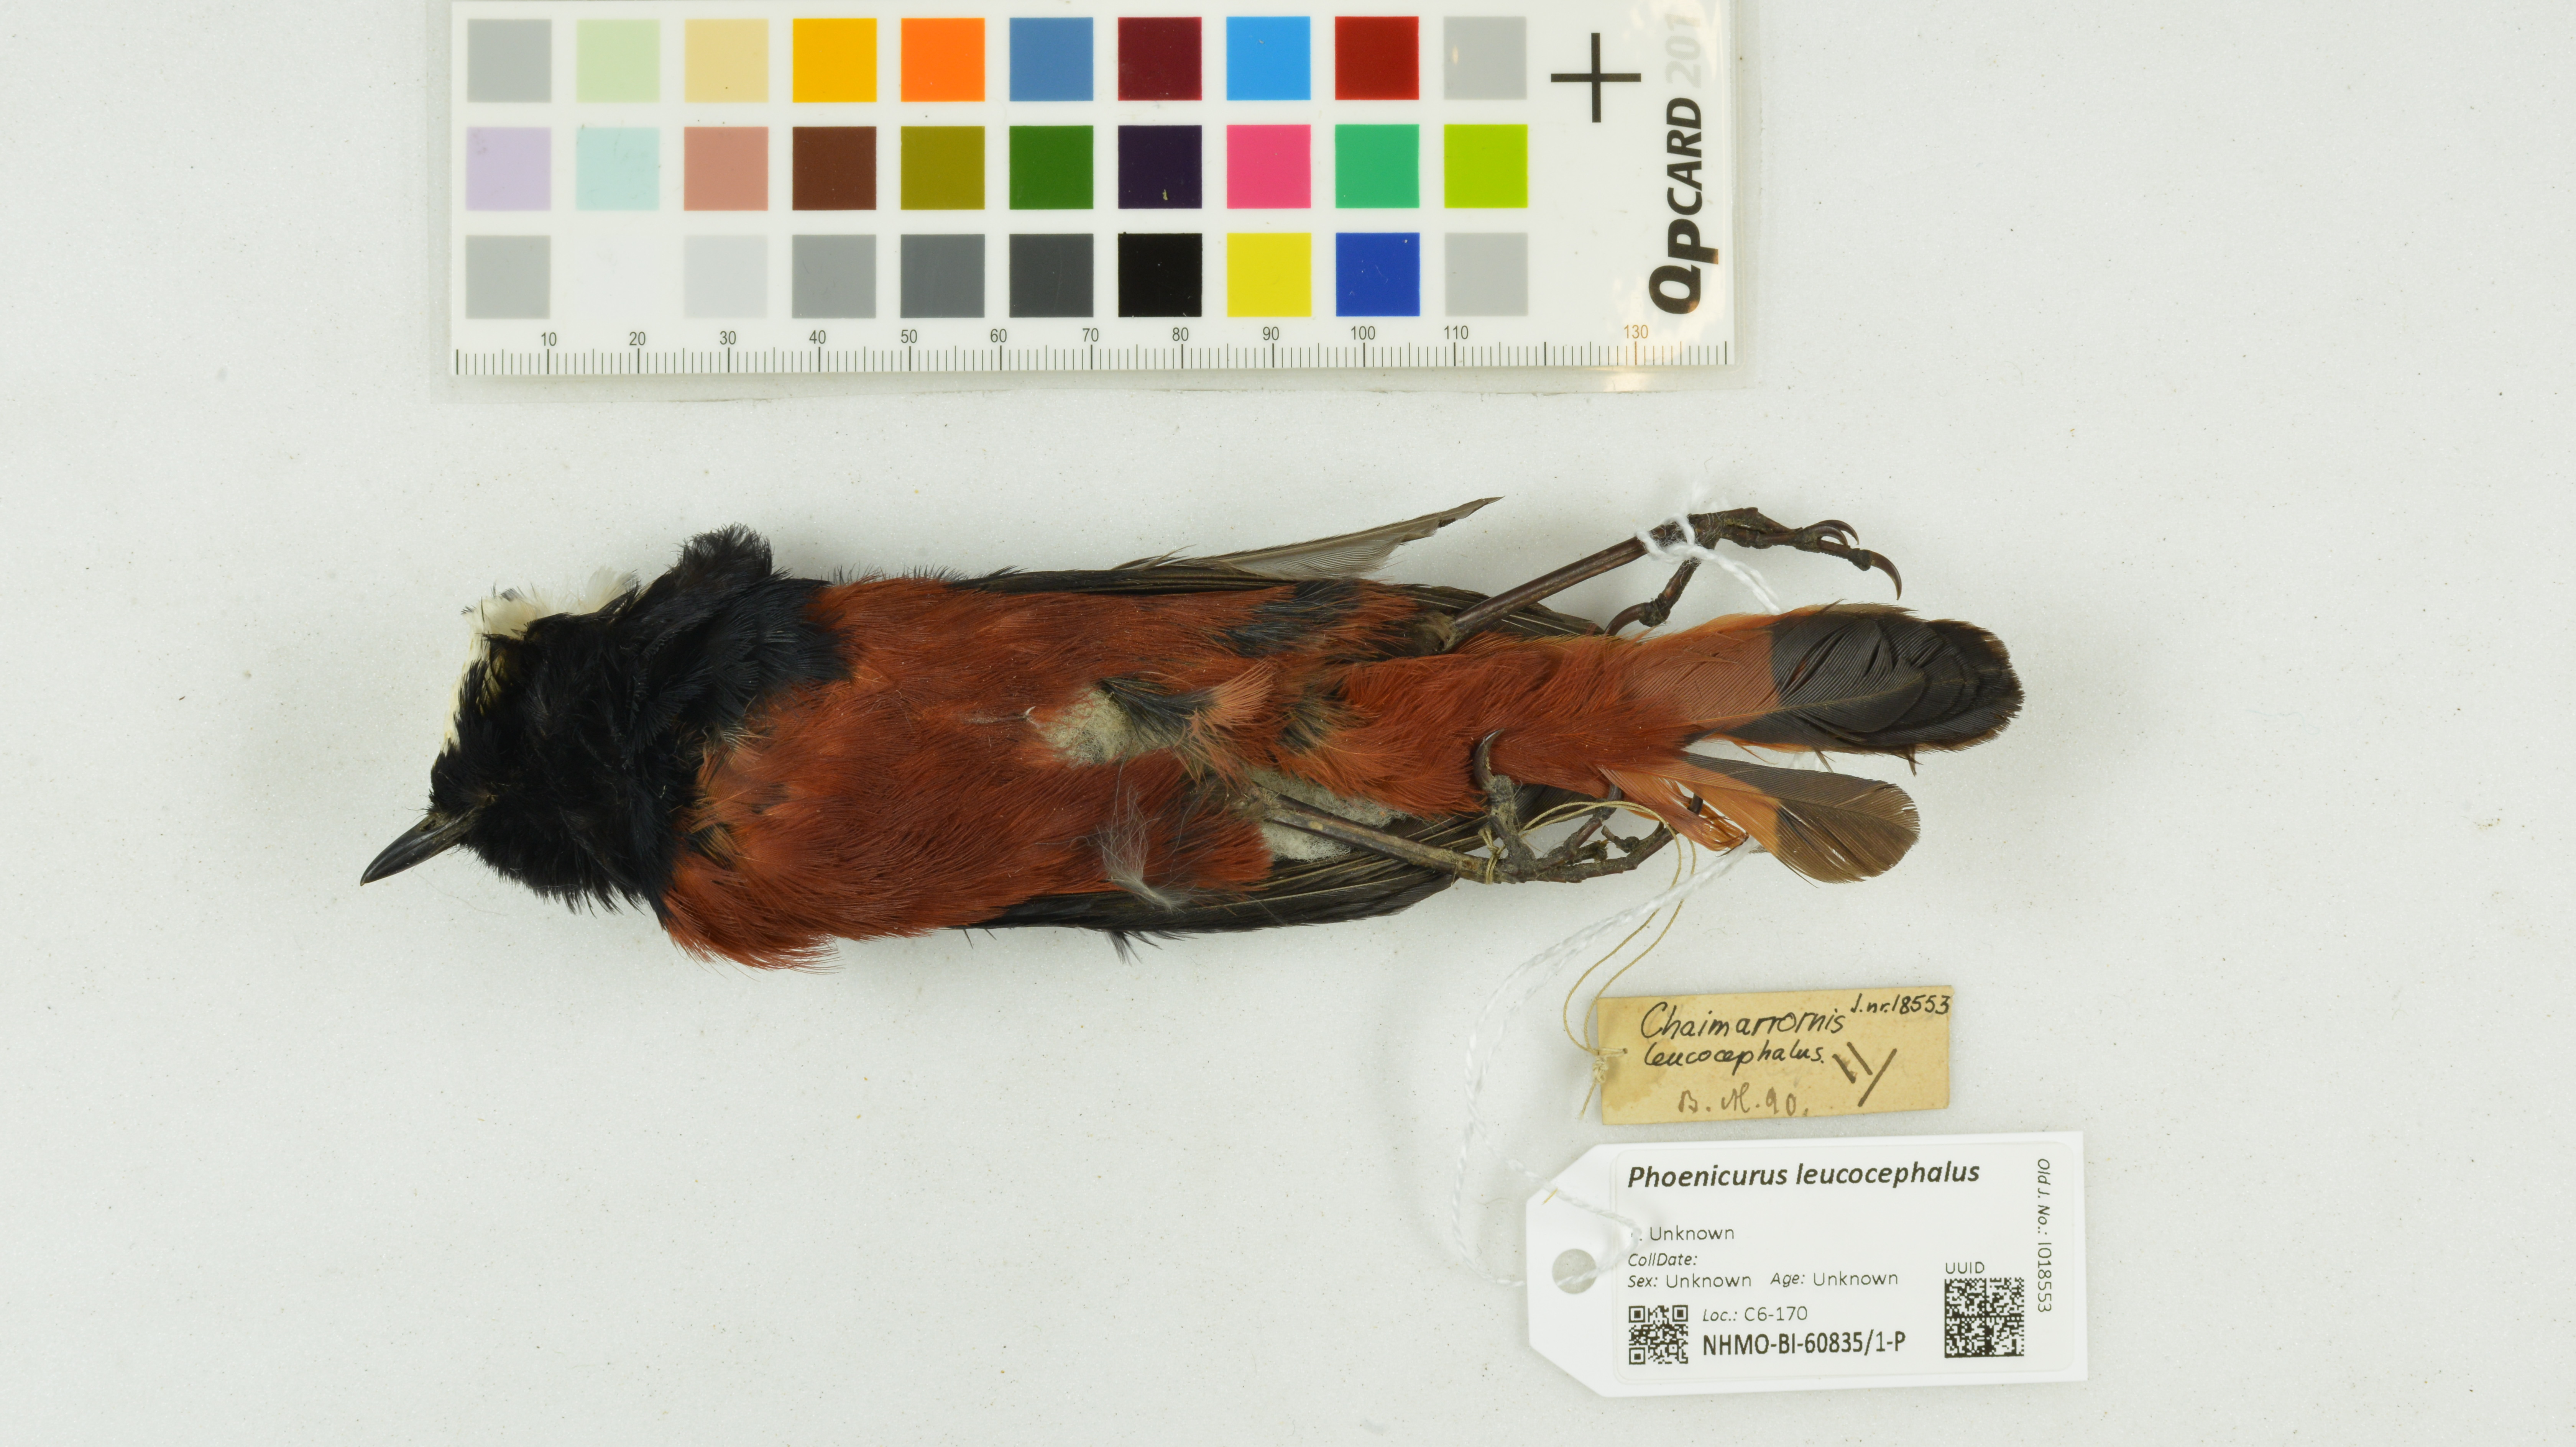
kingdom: Animalia
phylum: Chordata
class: Aves
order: Passeriformes
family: Muscicapidae
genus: Chaimarrornis
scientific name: Chaimarrornis leucocephalus
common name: White-capped redstart
